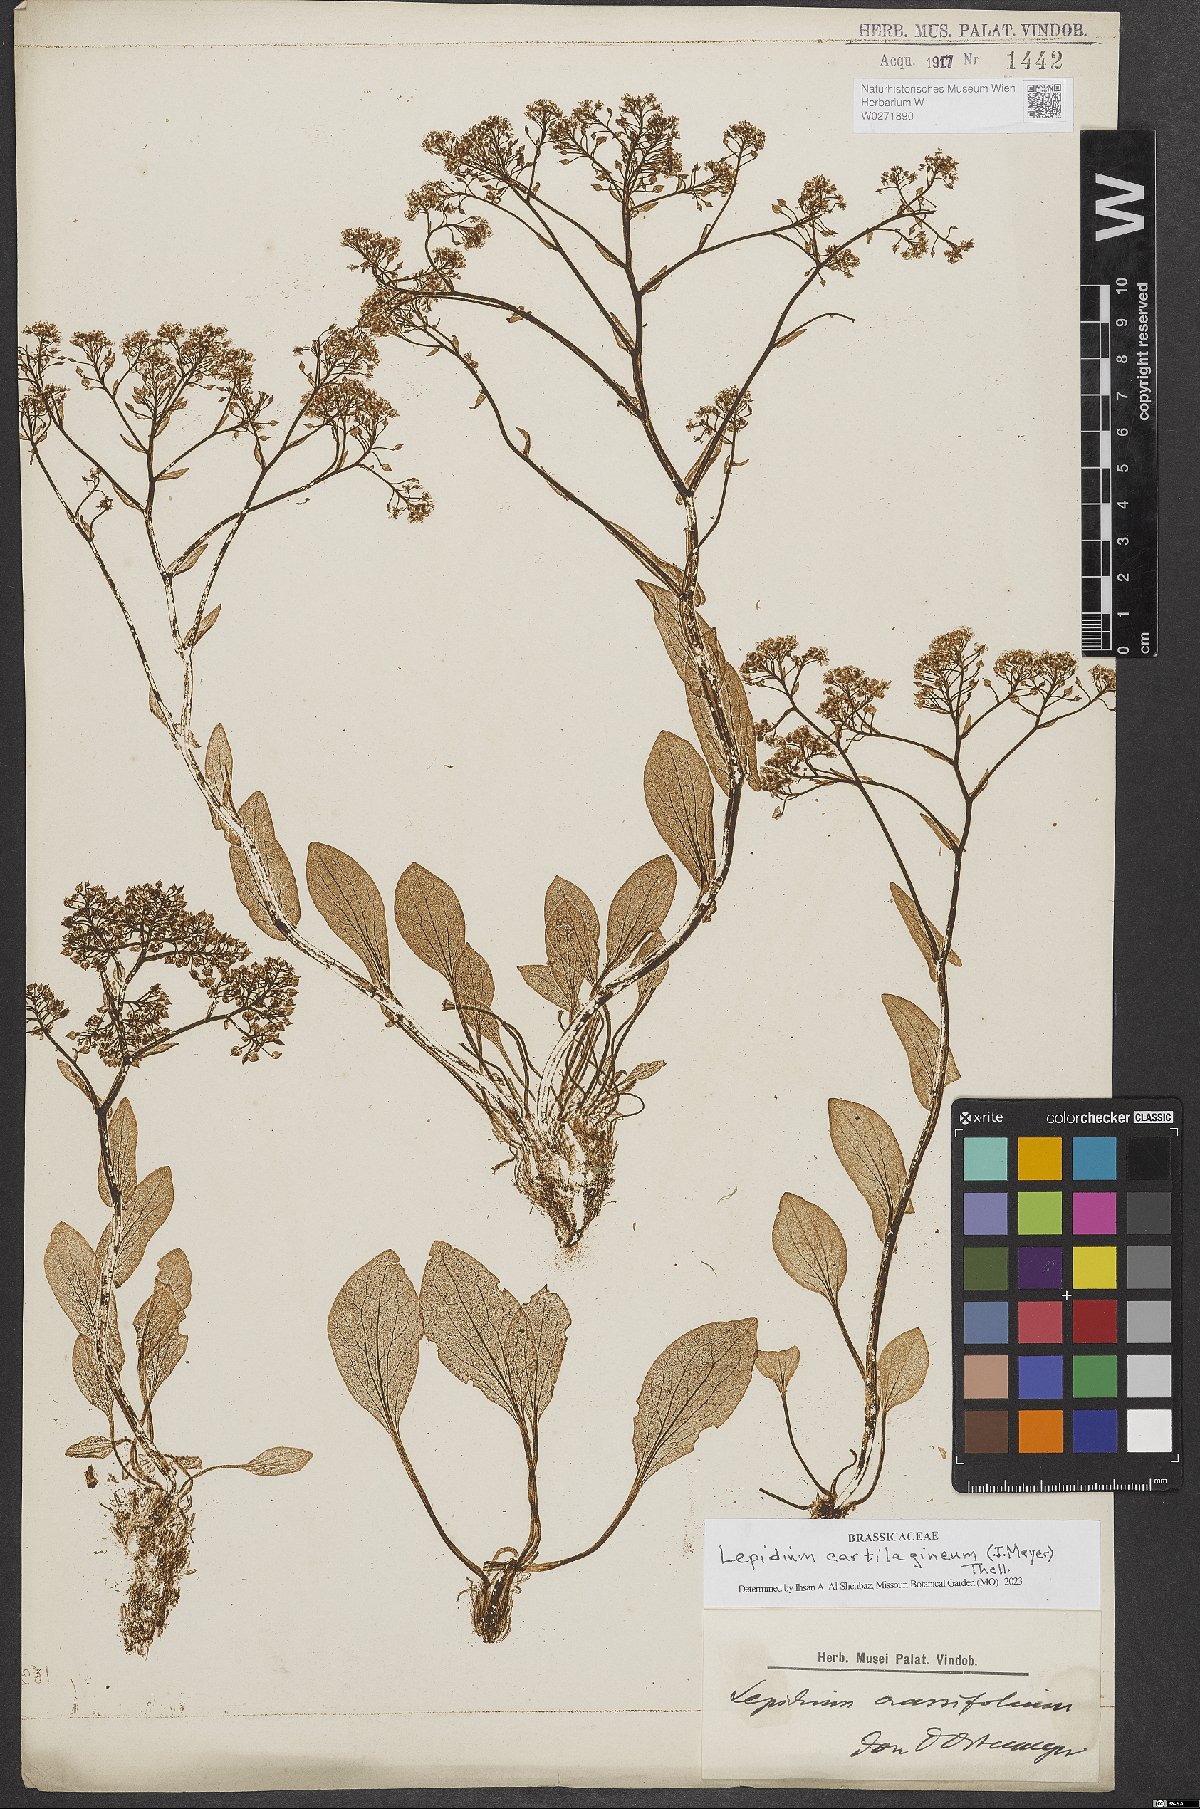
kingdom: Plantae
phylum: Tracheophyta
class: Magnoliopsida
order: Brassicales
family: Brassicaceae
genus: Lepidium
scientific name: Lepidium cartilagineum
